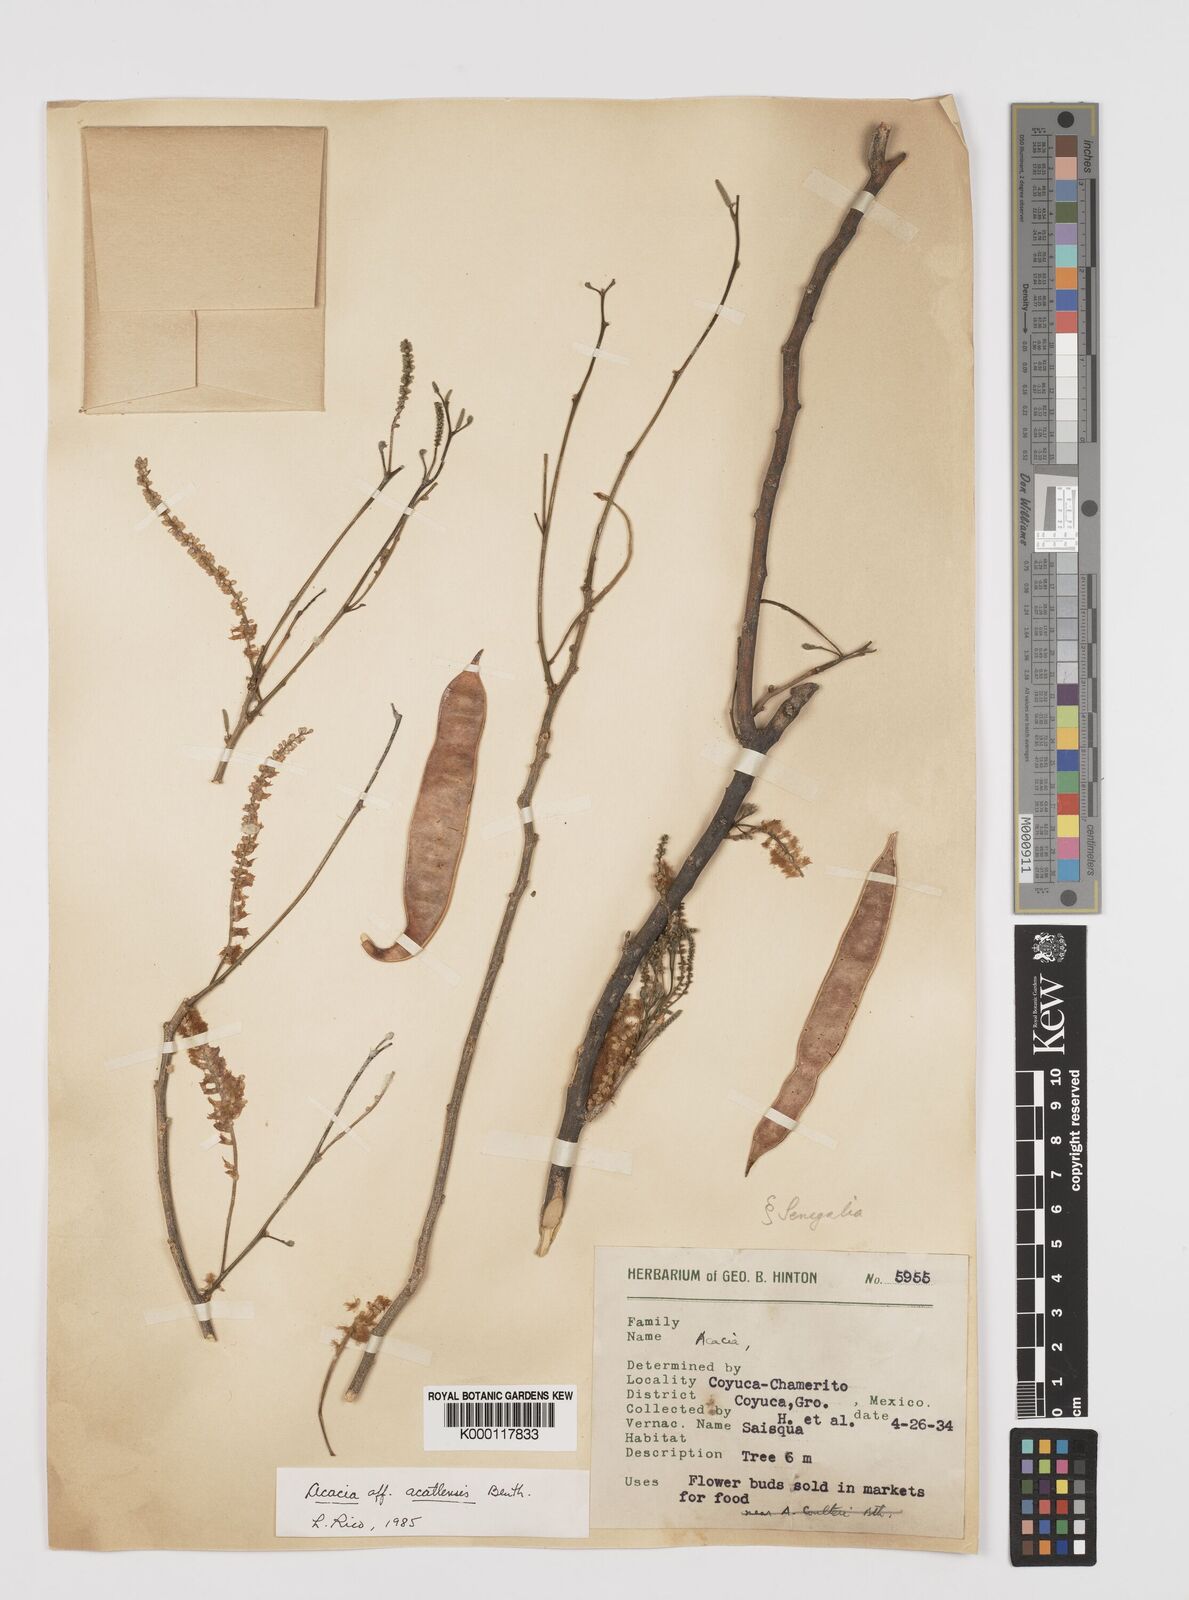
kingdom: Plantae
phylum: Tracheophyta
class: Magnoliopsida
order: Fabales
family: Fabaceae
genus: Mariosousa
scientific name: Mariosousa acatlensis
